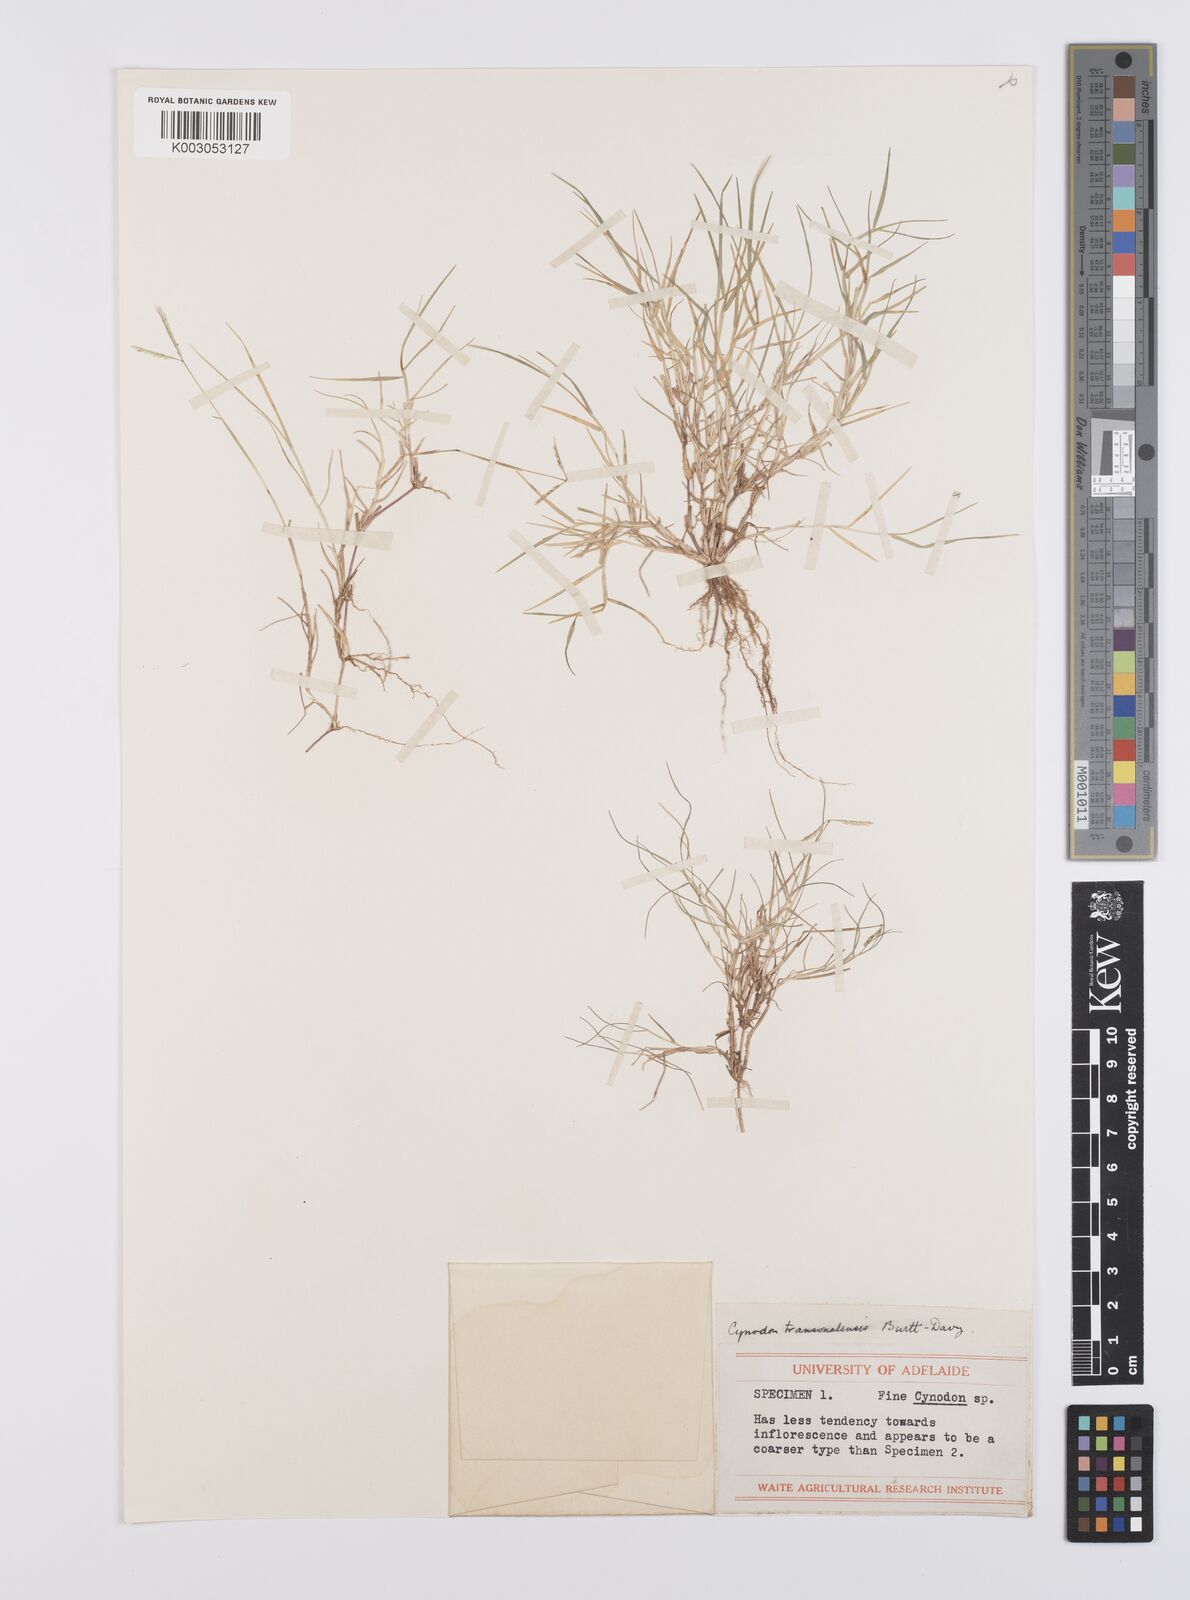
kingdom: Plantae
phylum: Tracheophyta
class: Liliopsida
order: Poales
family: Poaceae
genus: Cynodon
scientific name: Cynodon transvaalensis
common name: African bermuda grass
